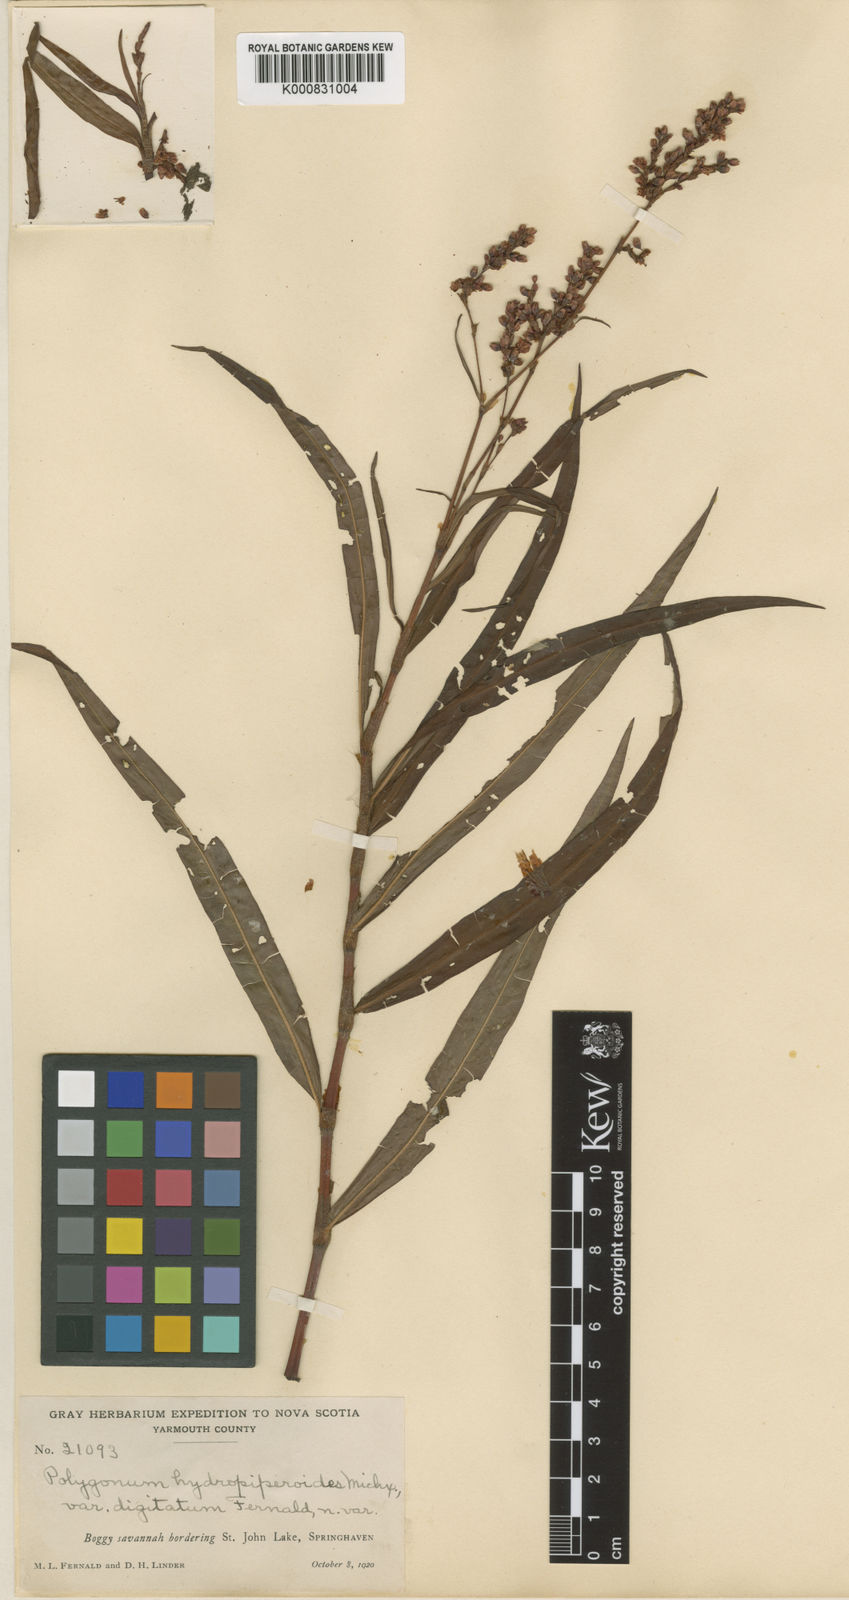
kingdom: Plantae
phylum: Tracheophyta
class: Magnoliopsida
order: Caryophyllales
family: Polygonaceae
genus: Persicaria
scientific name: Persicaria hydropiperoides
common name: Swamp smartweed
